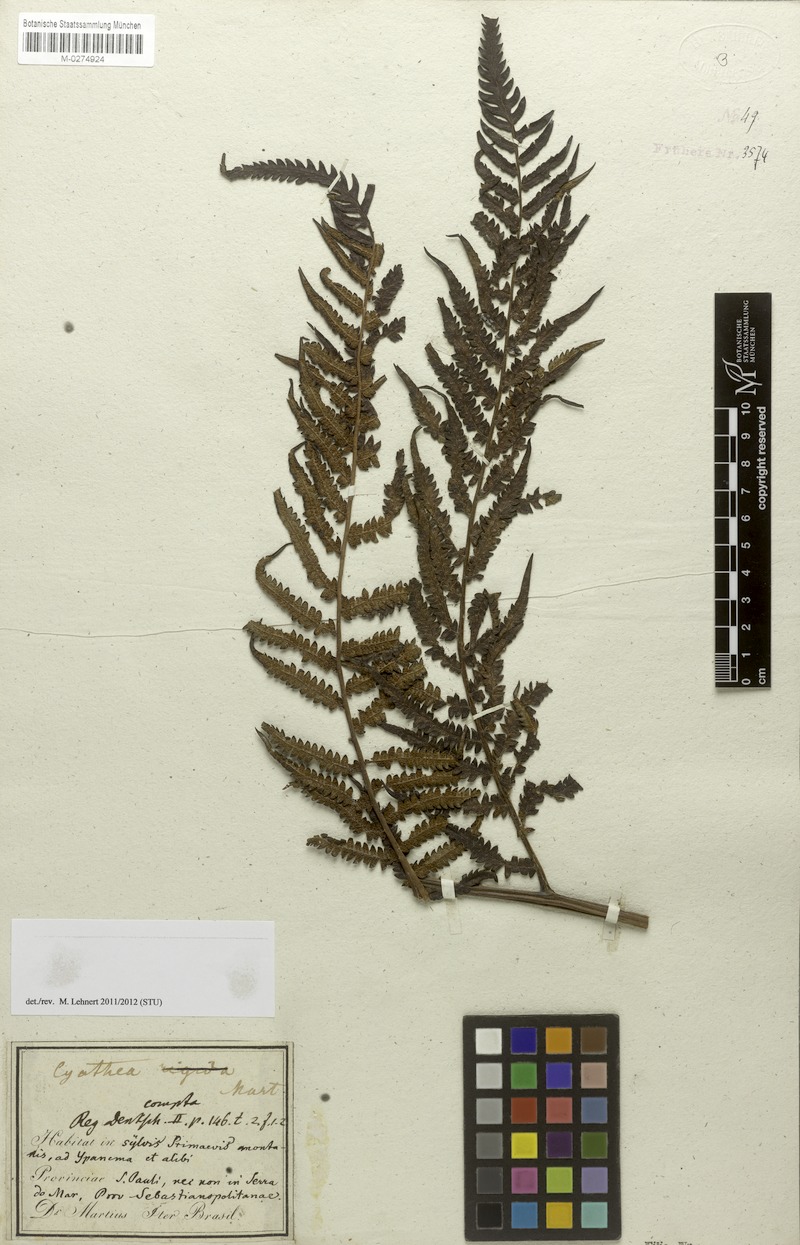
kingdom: Plantae
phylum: Tracheophyta
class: Polypodiopsida
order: Cyatheales
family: Cyatheaceae
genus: Cyathea
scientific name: Cyathea atrovirens
